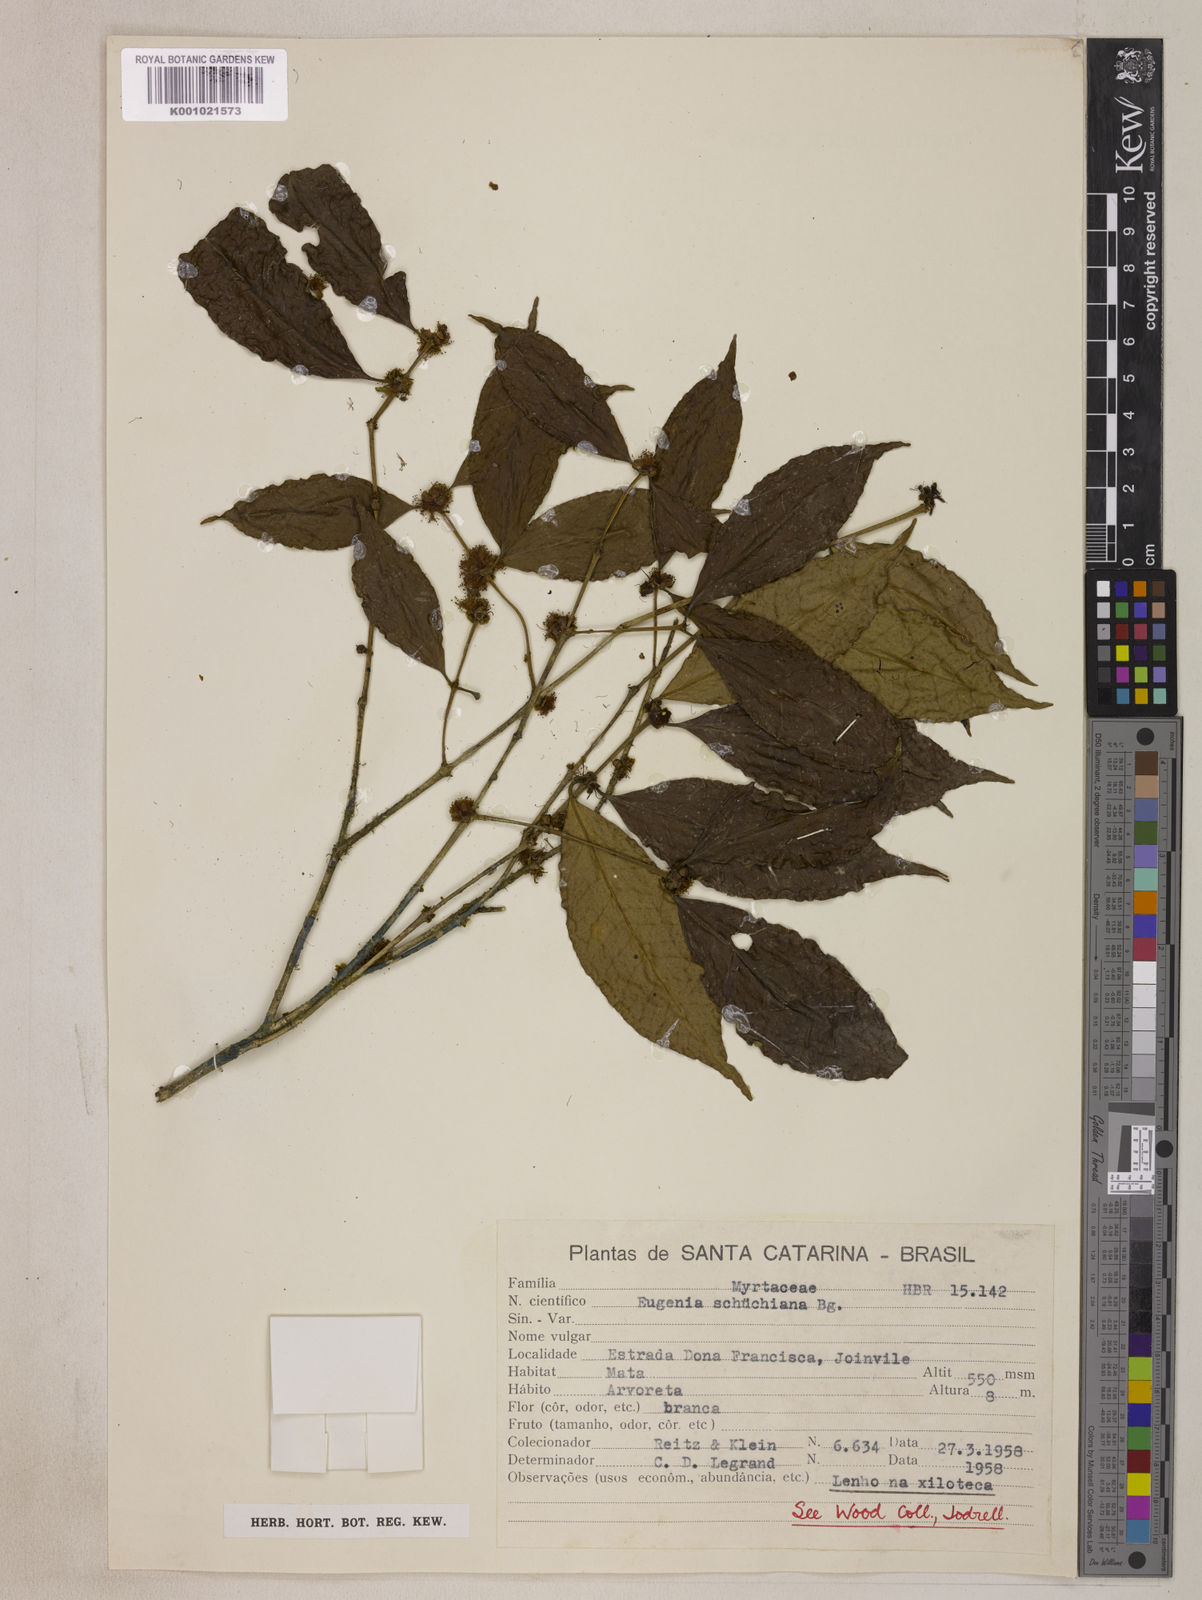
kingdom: Plantae
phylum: Tracheophyta
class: Magnoliopsida
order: Myrtales
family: Myrtaceae
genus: Eugenia
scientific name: Eugenia verticillata
